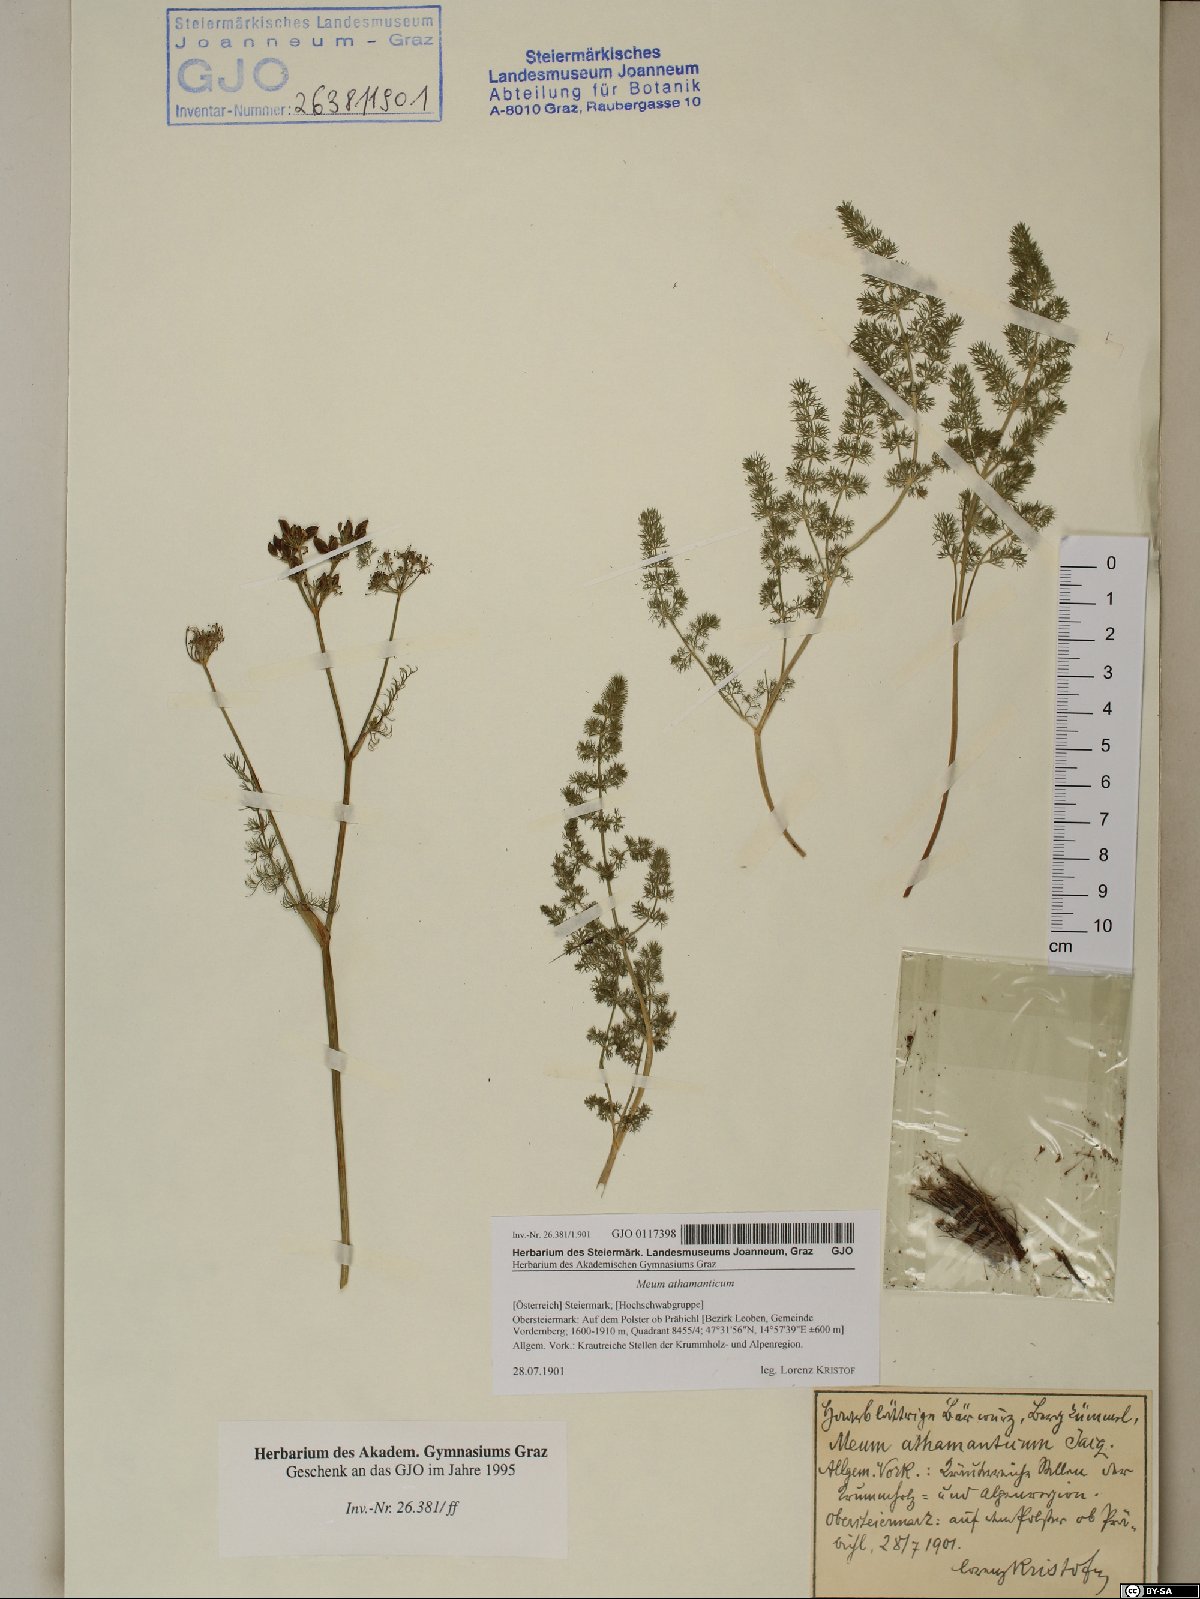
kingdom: Plantae
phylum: Tracheophyta
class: Magnoliopsida
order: Apiales
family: Apiaceae
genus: Meum
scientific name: Meum athamanticum
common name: Spignel
